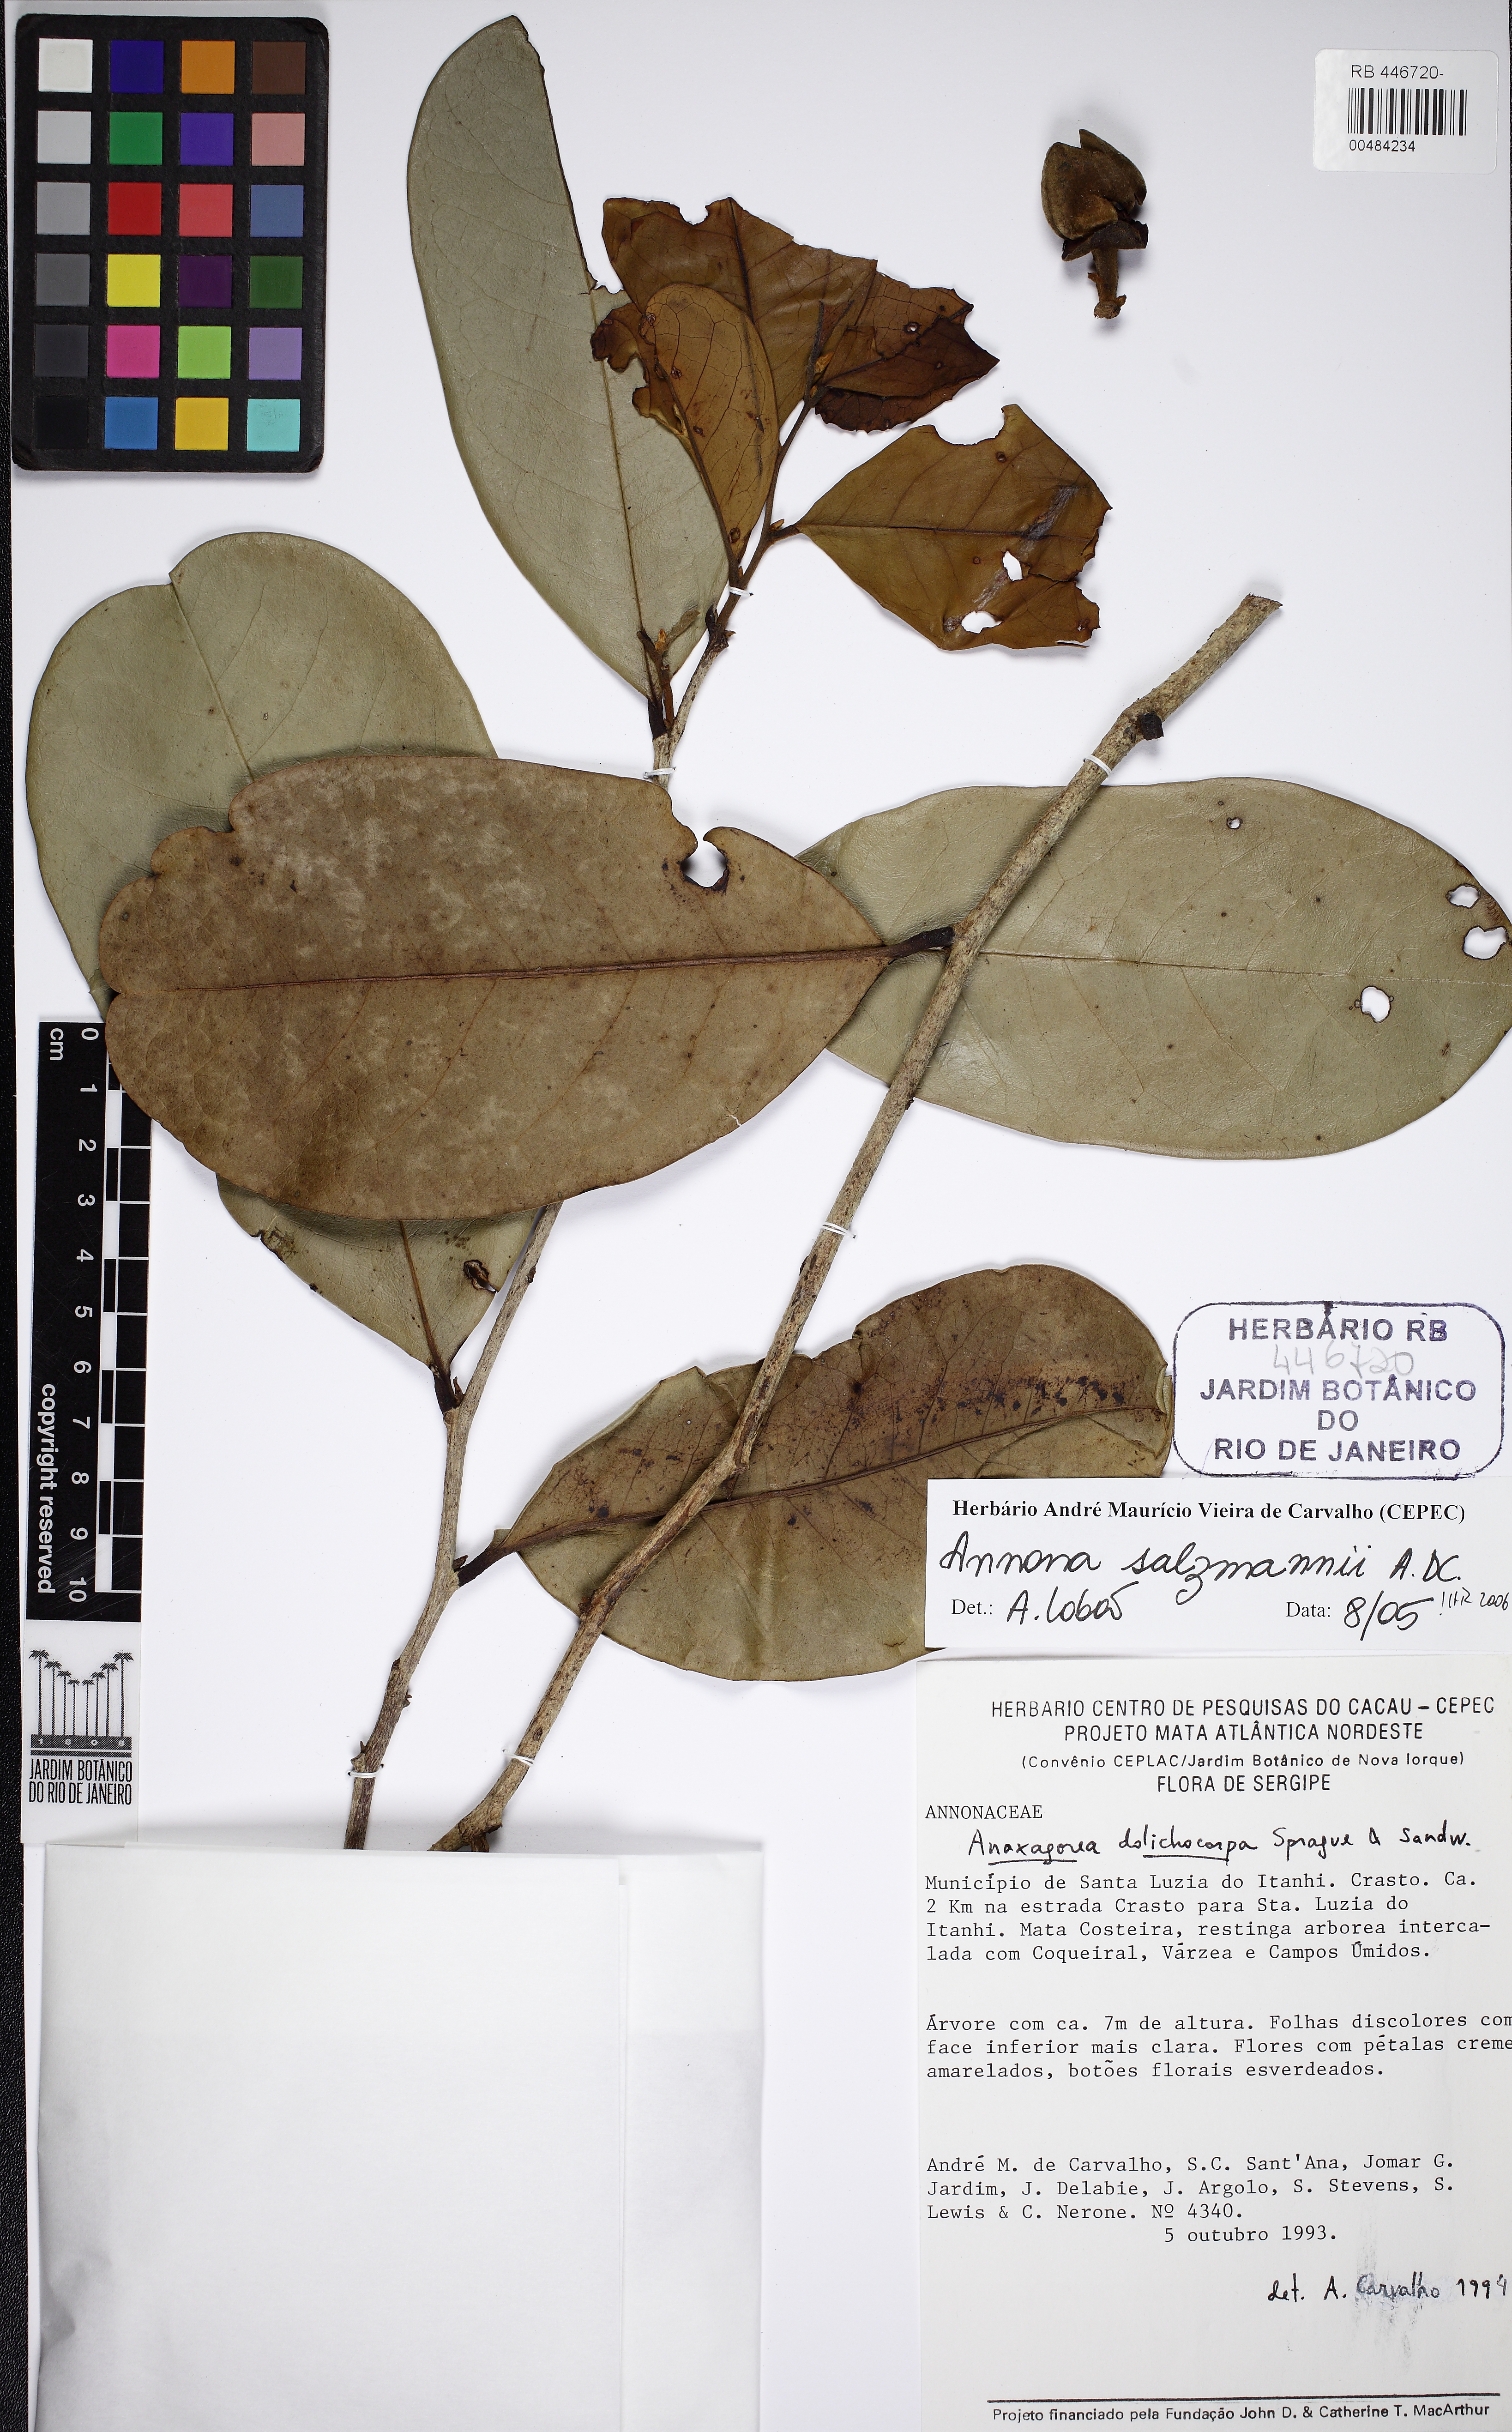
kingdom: Plantae
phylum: Tracheophyta
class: Magnoliopsida
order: Magnoliales
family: Annonaceae
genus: Annona
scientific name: Annona salzmannii
